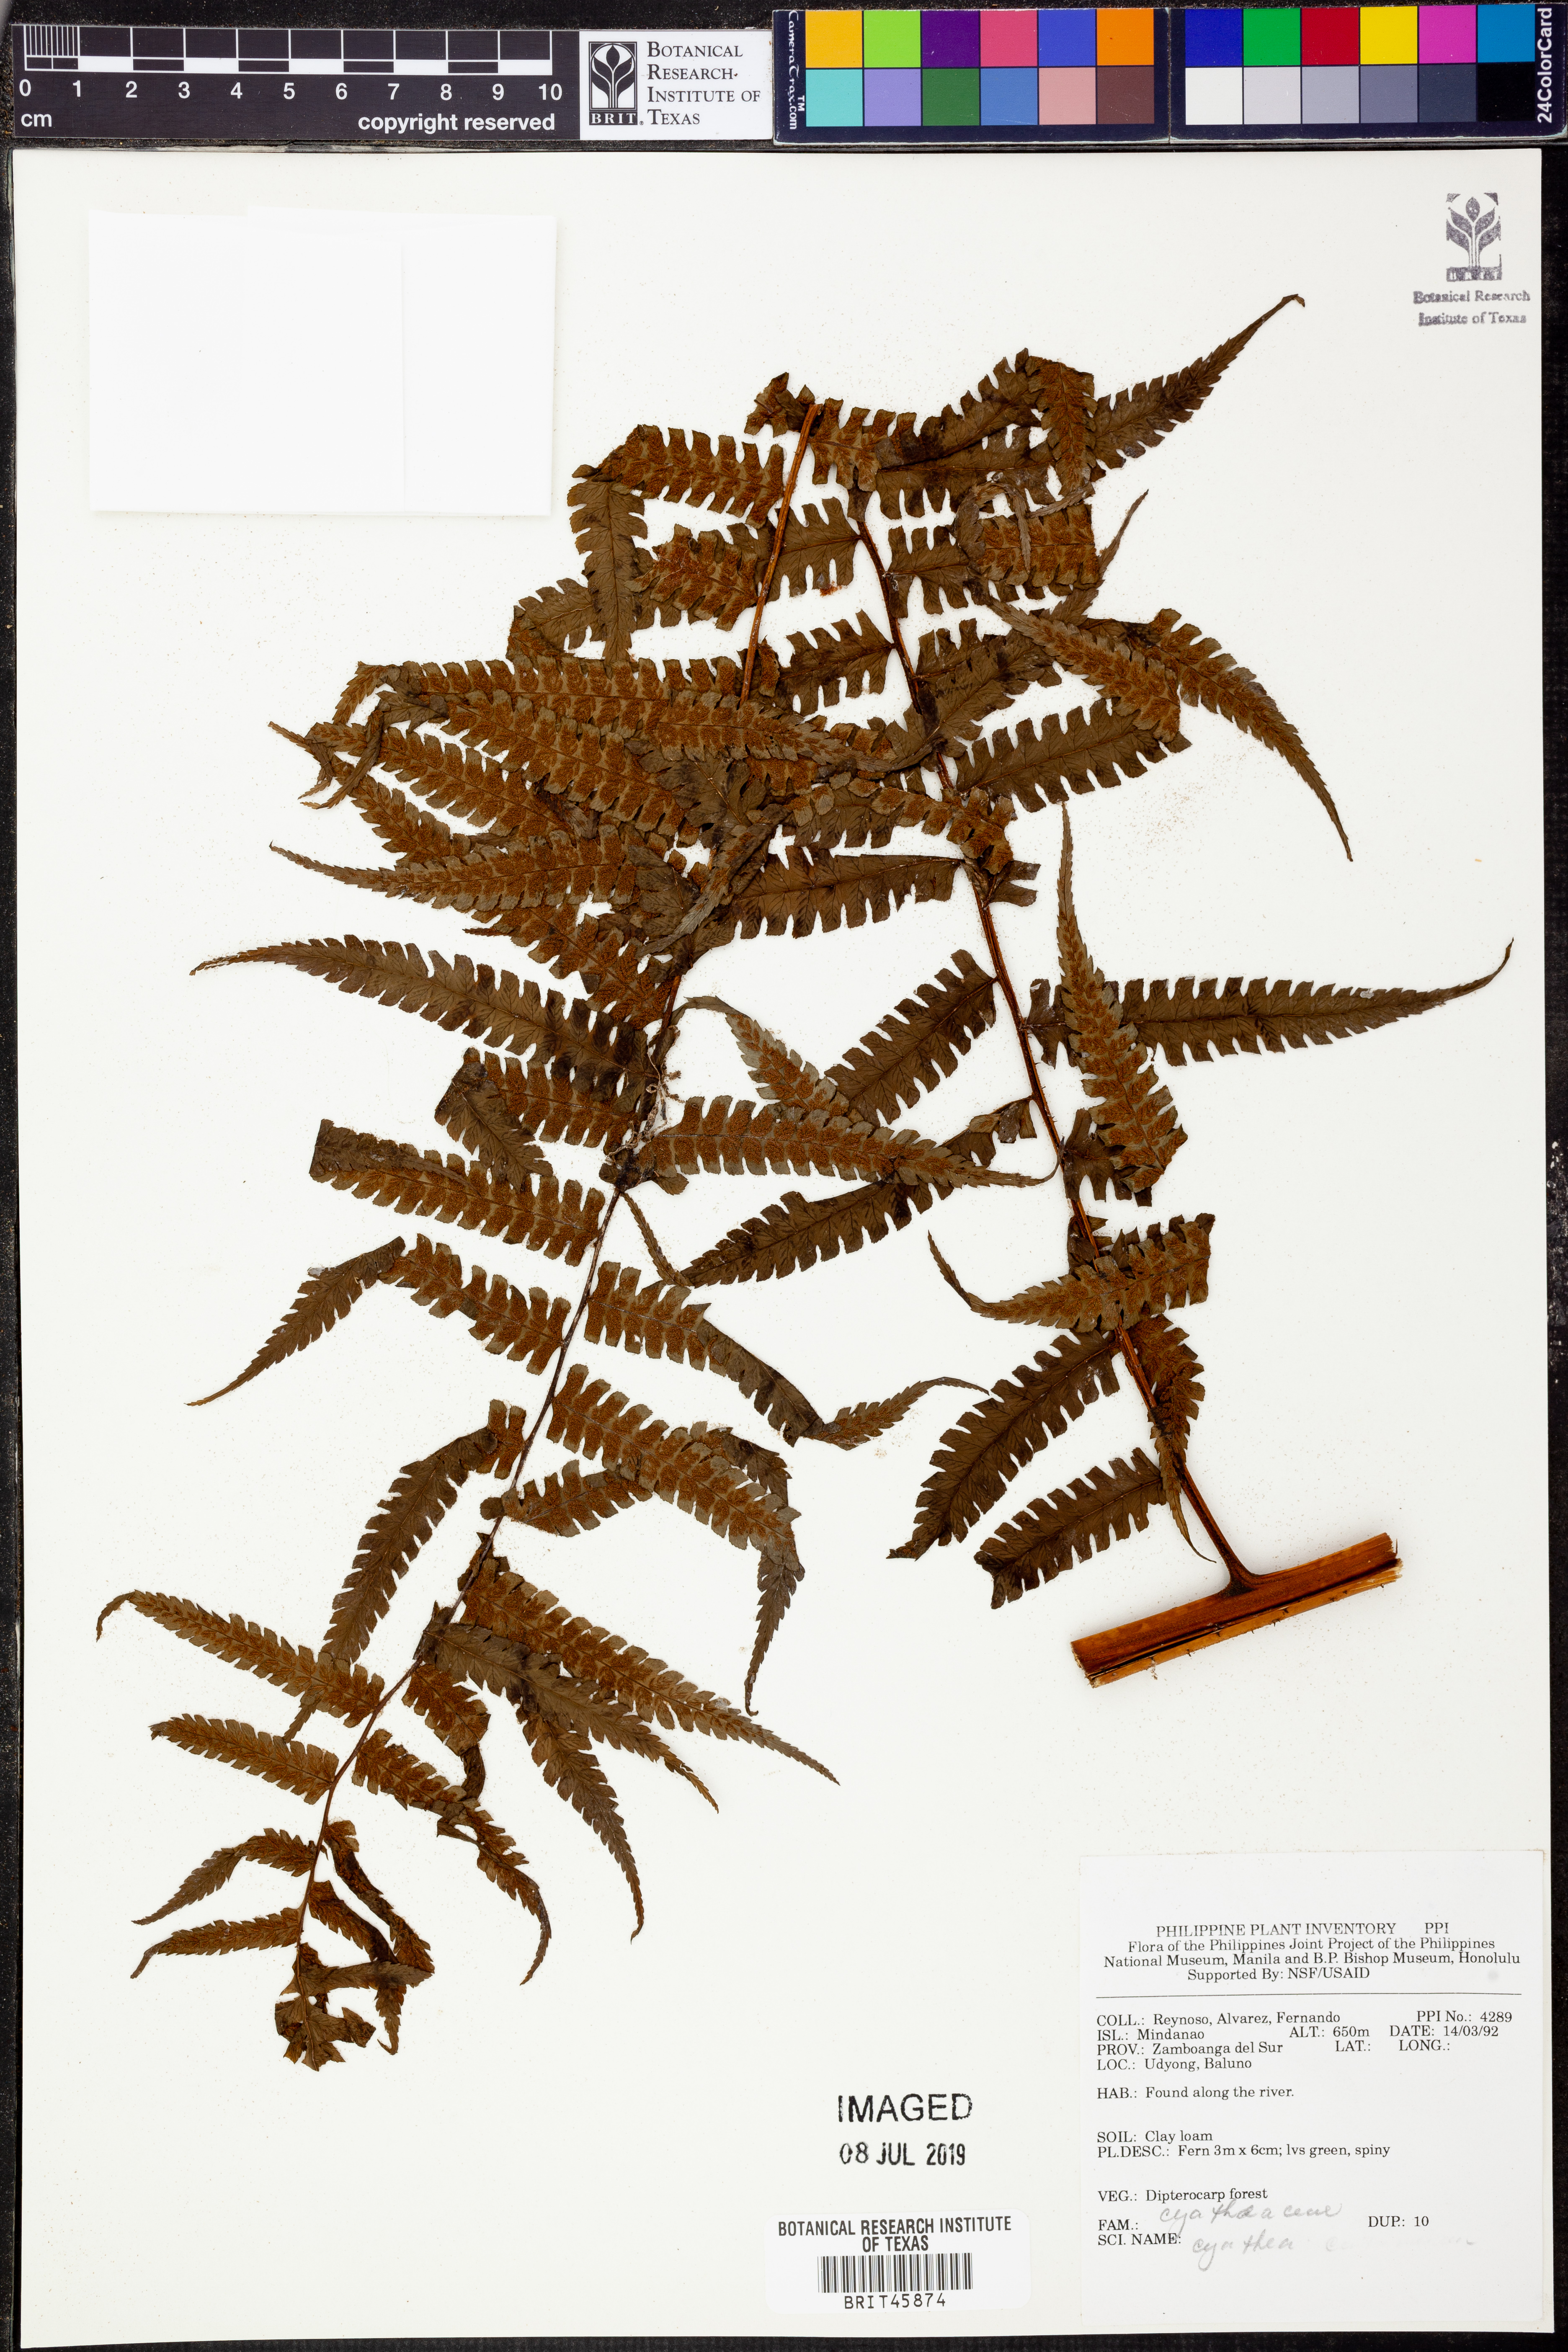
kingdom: Plantae
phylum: Tracheophyta
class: Polypodiopsida
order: Cyatheales
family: Cyatheaceae
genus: Cyathea
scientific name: Cyathea
